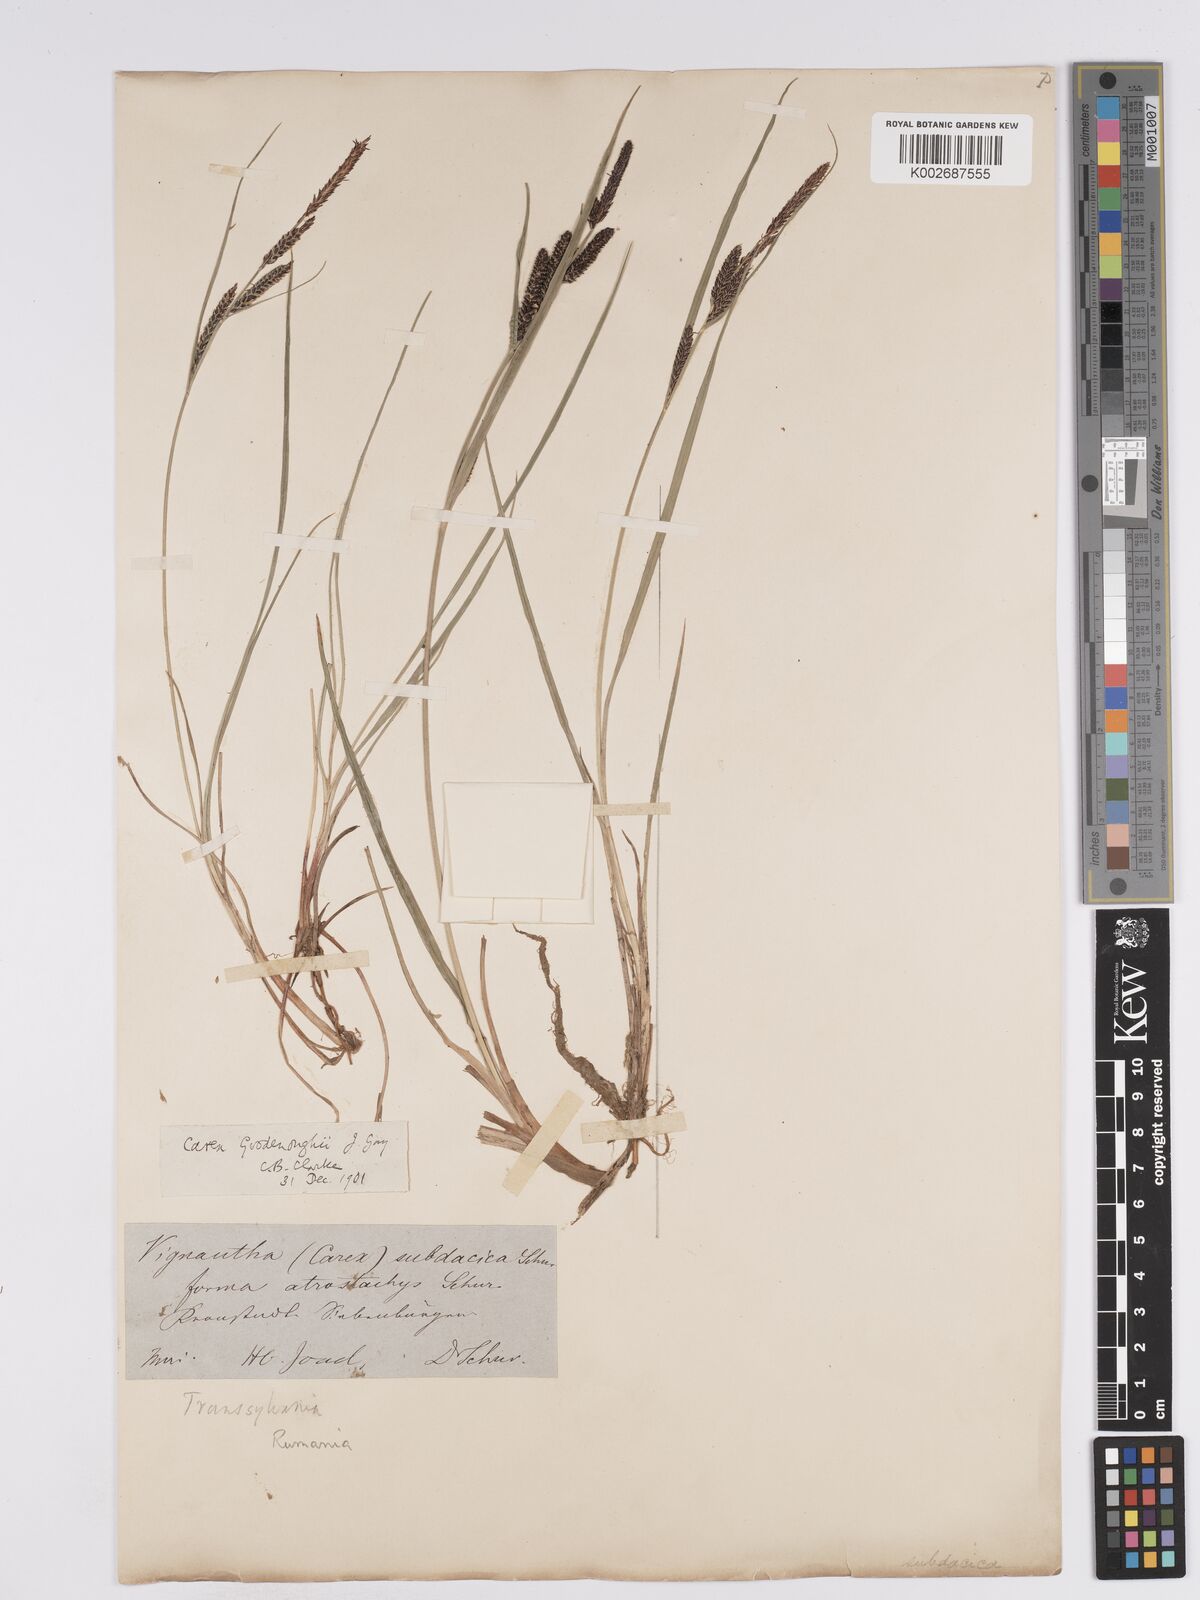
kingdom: Plantae
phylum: Tracheophyta
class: Liliopsida
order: Poales
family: Cyperaceae
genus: Carex
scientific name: Carex nigra
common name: Common sedge
